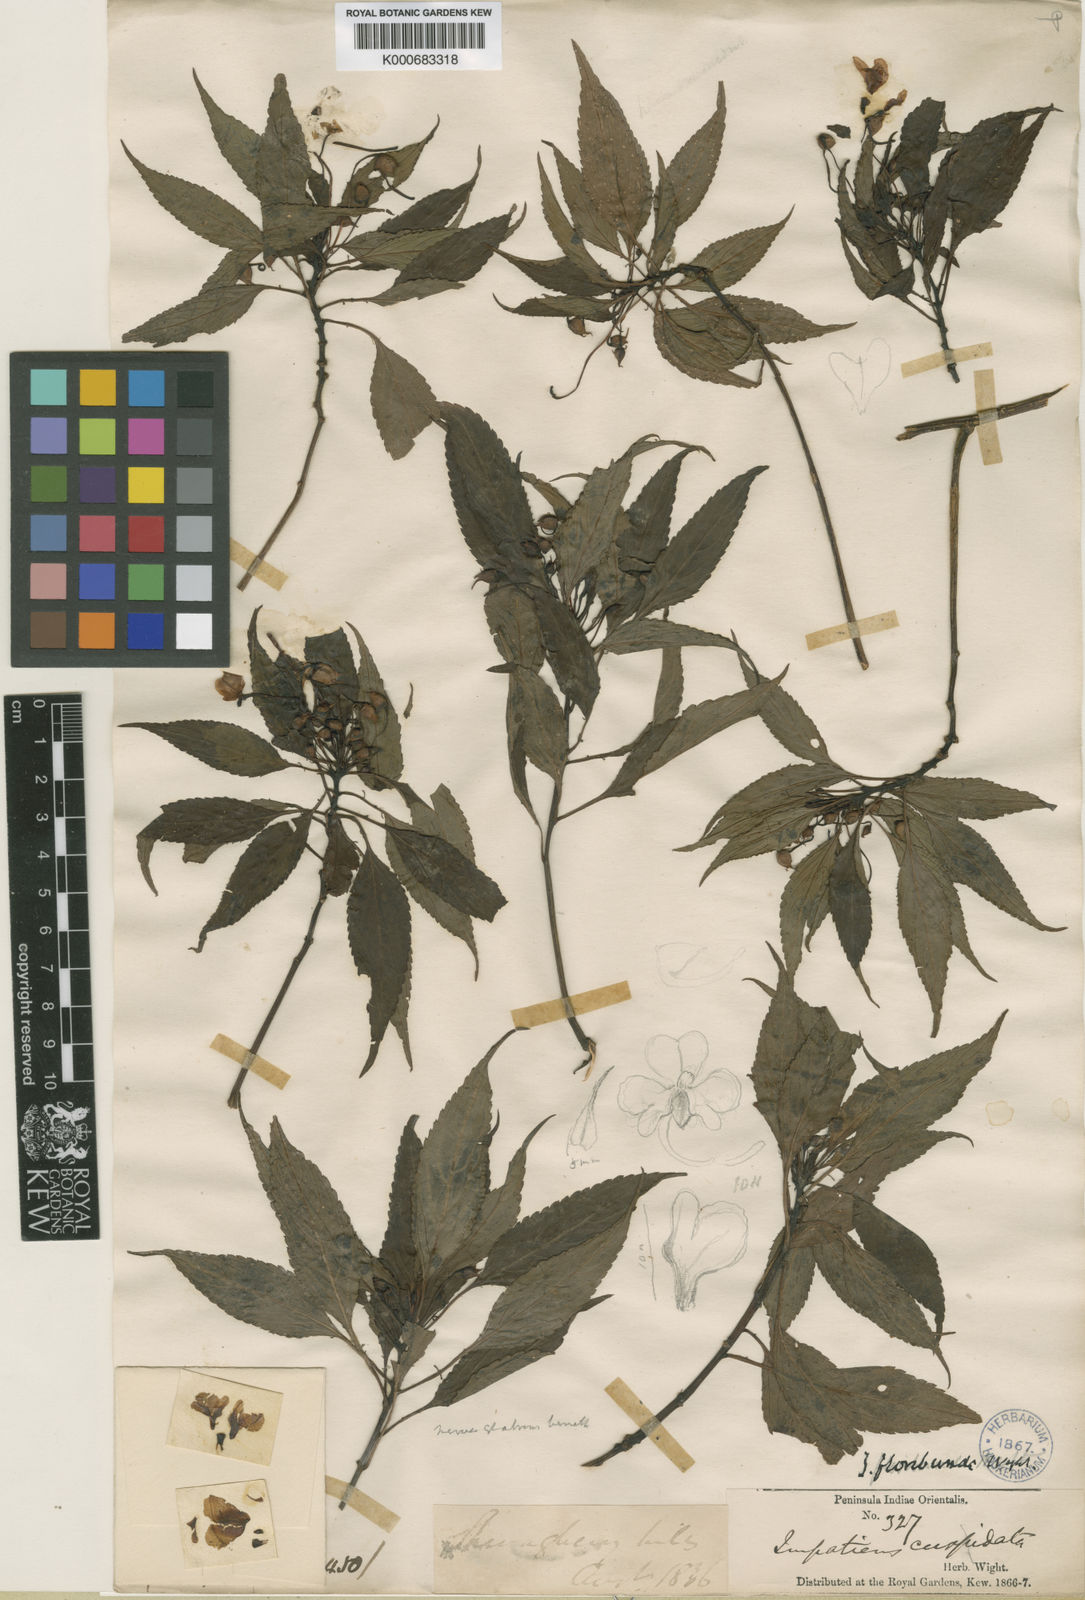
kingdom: Plantae
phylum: Tracheophyta
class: Magnoliopsida
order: Ericales
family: Balsaminaceae
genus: Impatiens
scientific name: Impatiens floribunda
